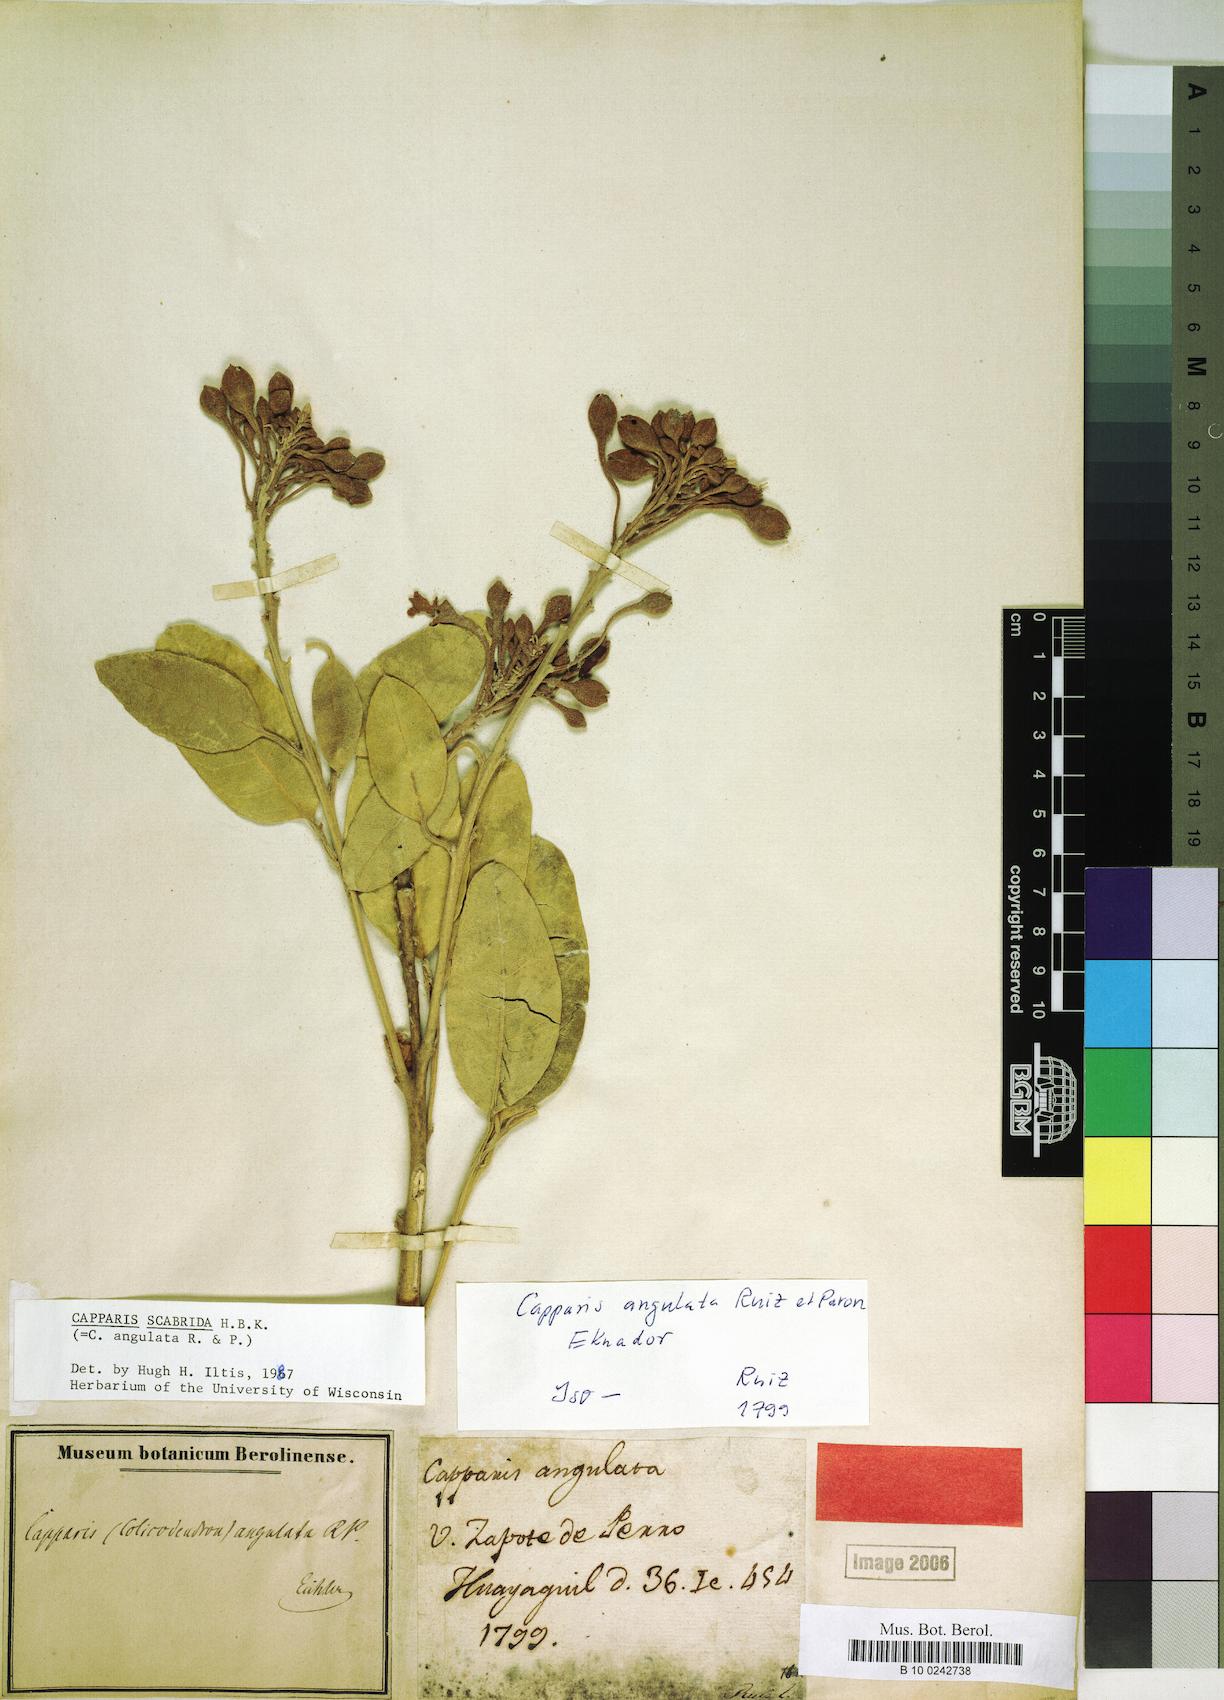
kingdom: Plantae
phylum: Tracheophyta
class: Magnoliopsida
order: Brassicales
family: Capparaceae
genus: Colicodendron
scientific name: Colicodendron scabridum
